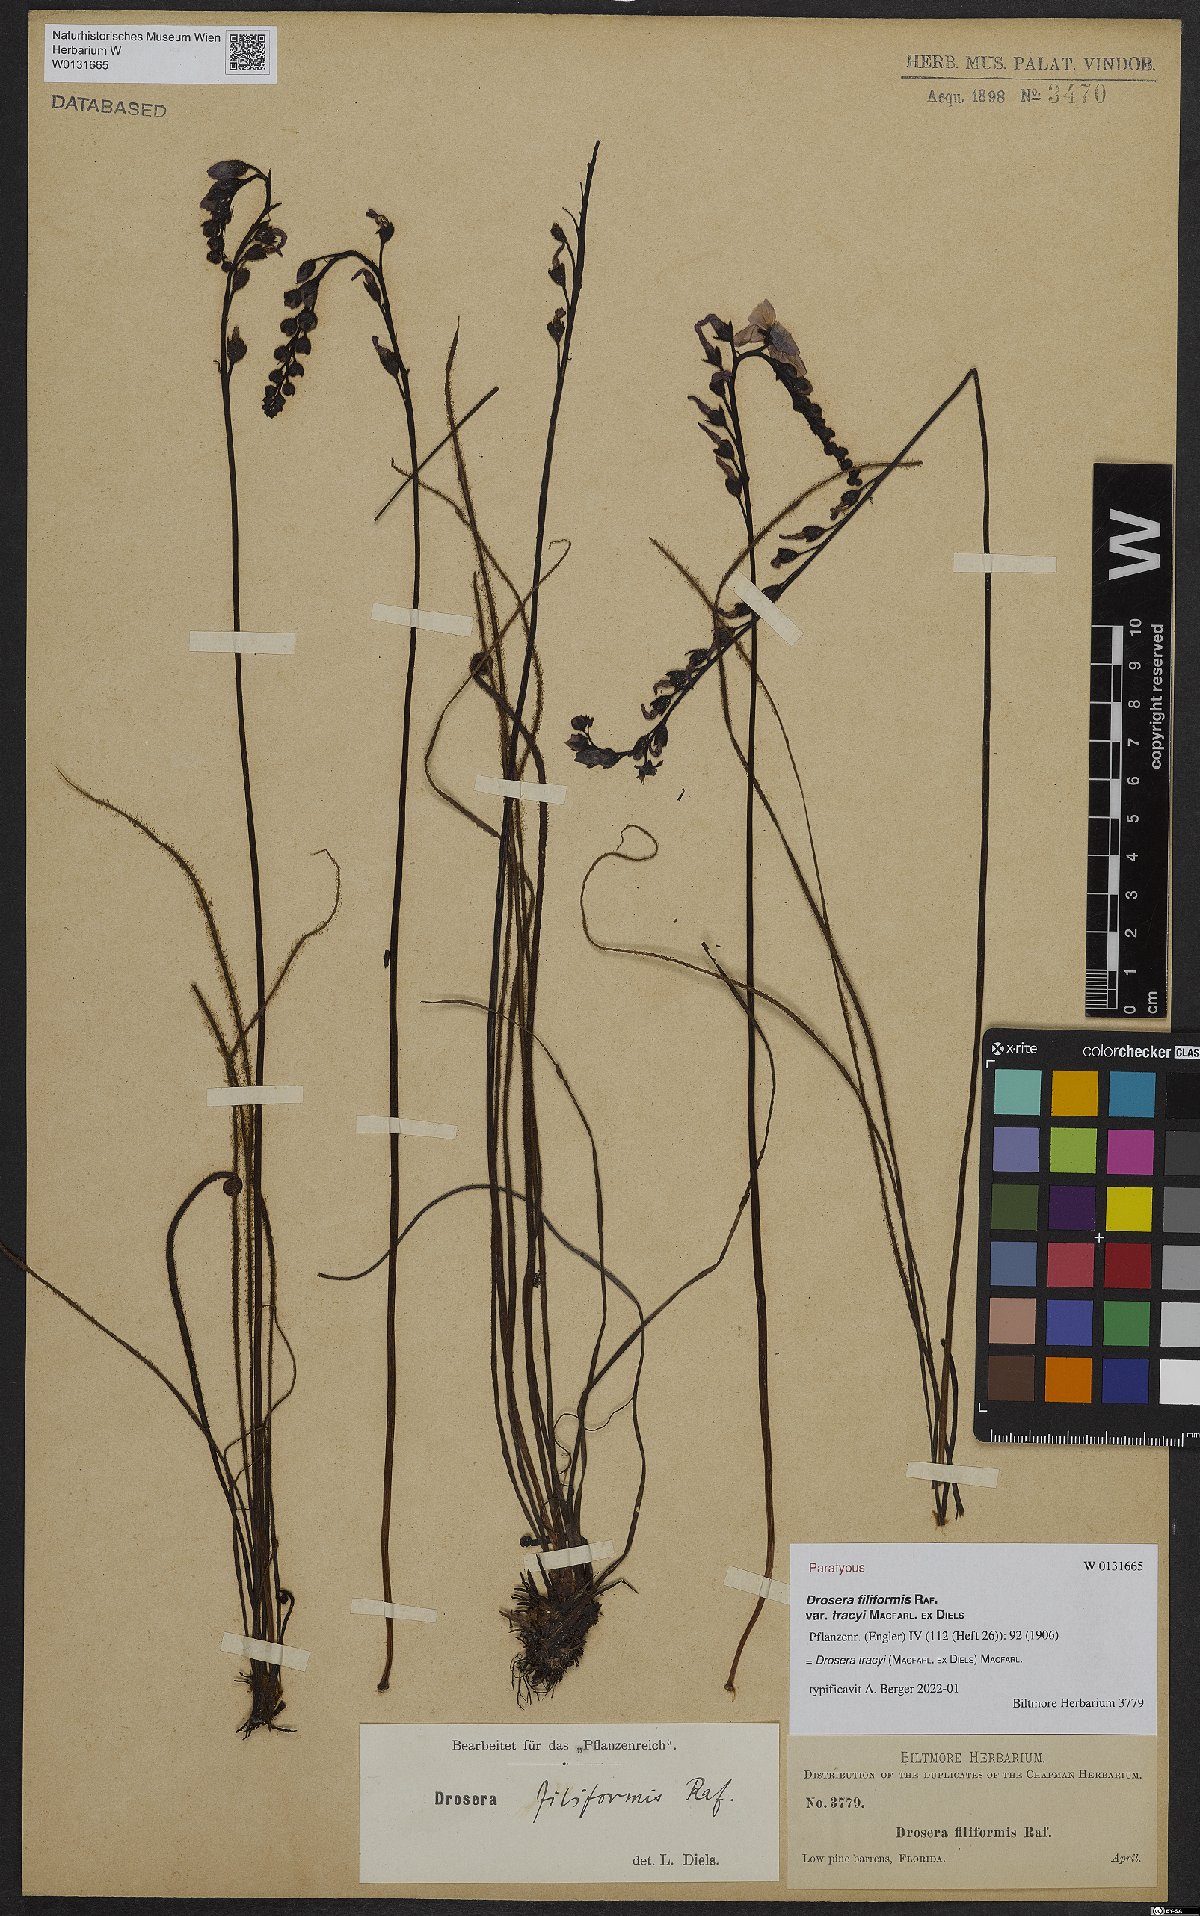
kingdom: Plantae
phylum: Tracheophyta
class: Magnoliopsida
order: Caryophyllales
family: Droseraceae
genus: Drosera
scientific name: Drosera filiformis
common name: Dew-thread
